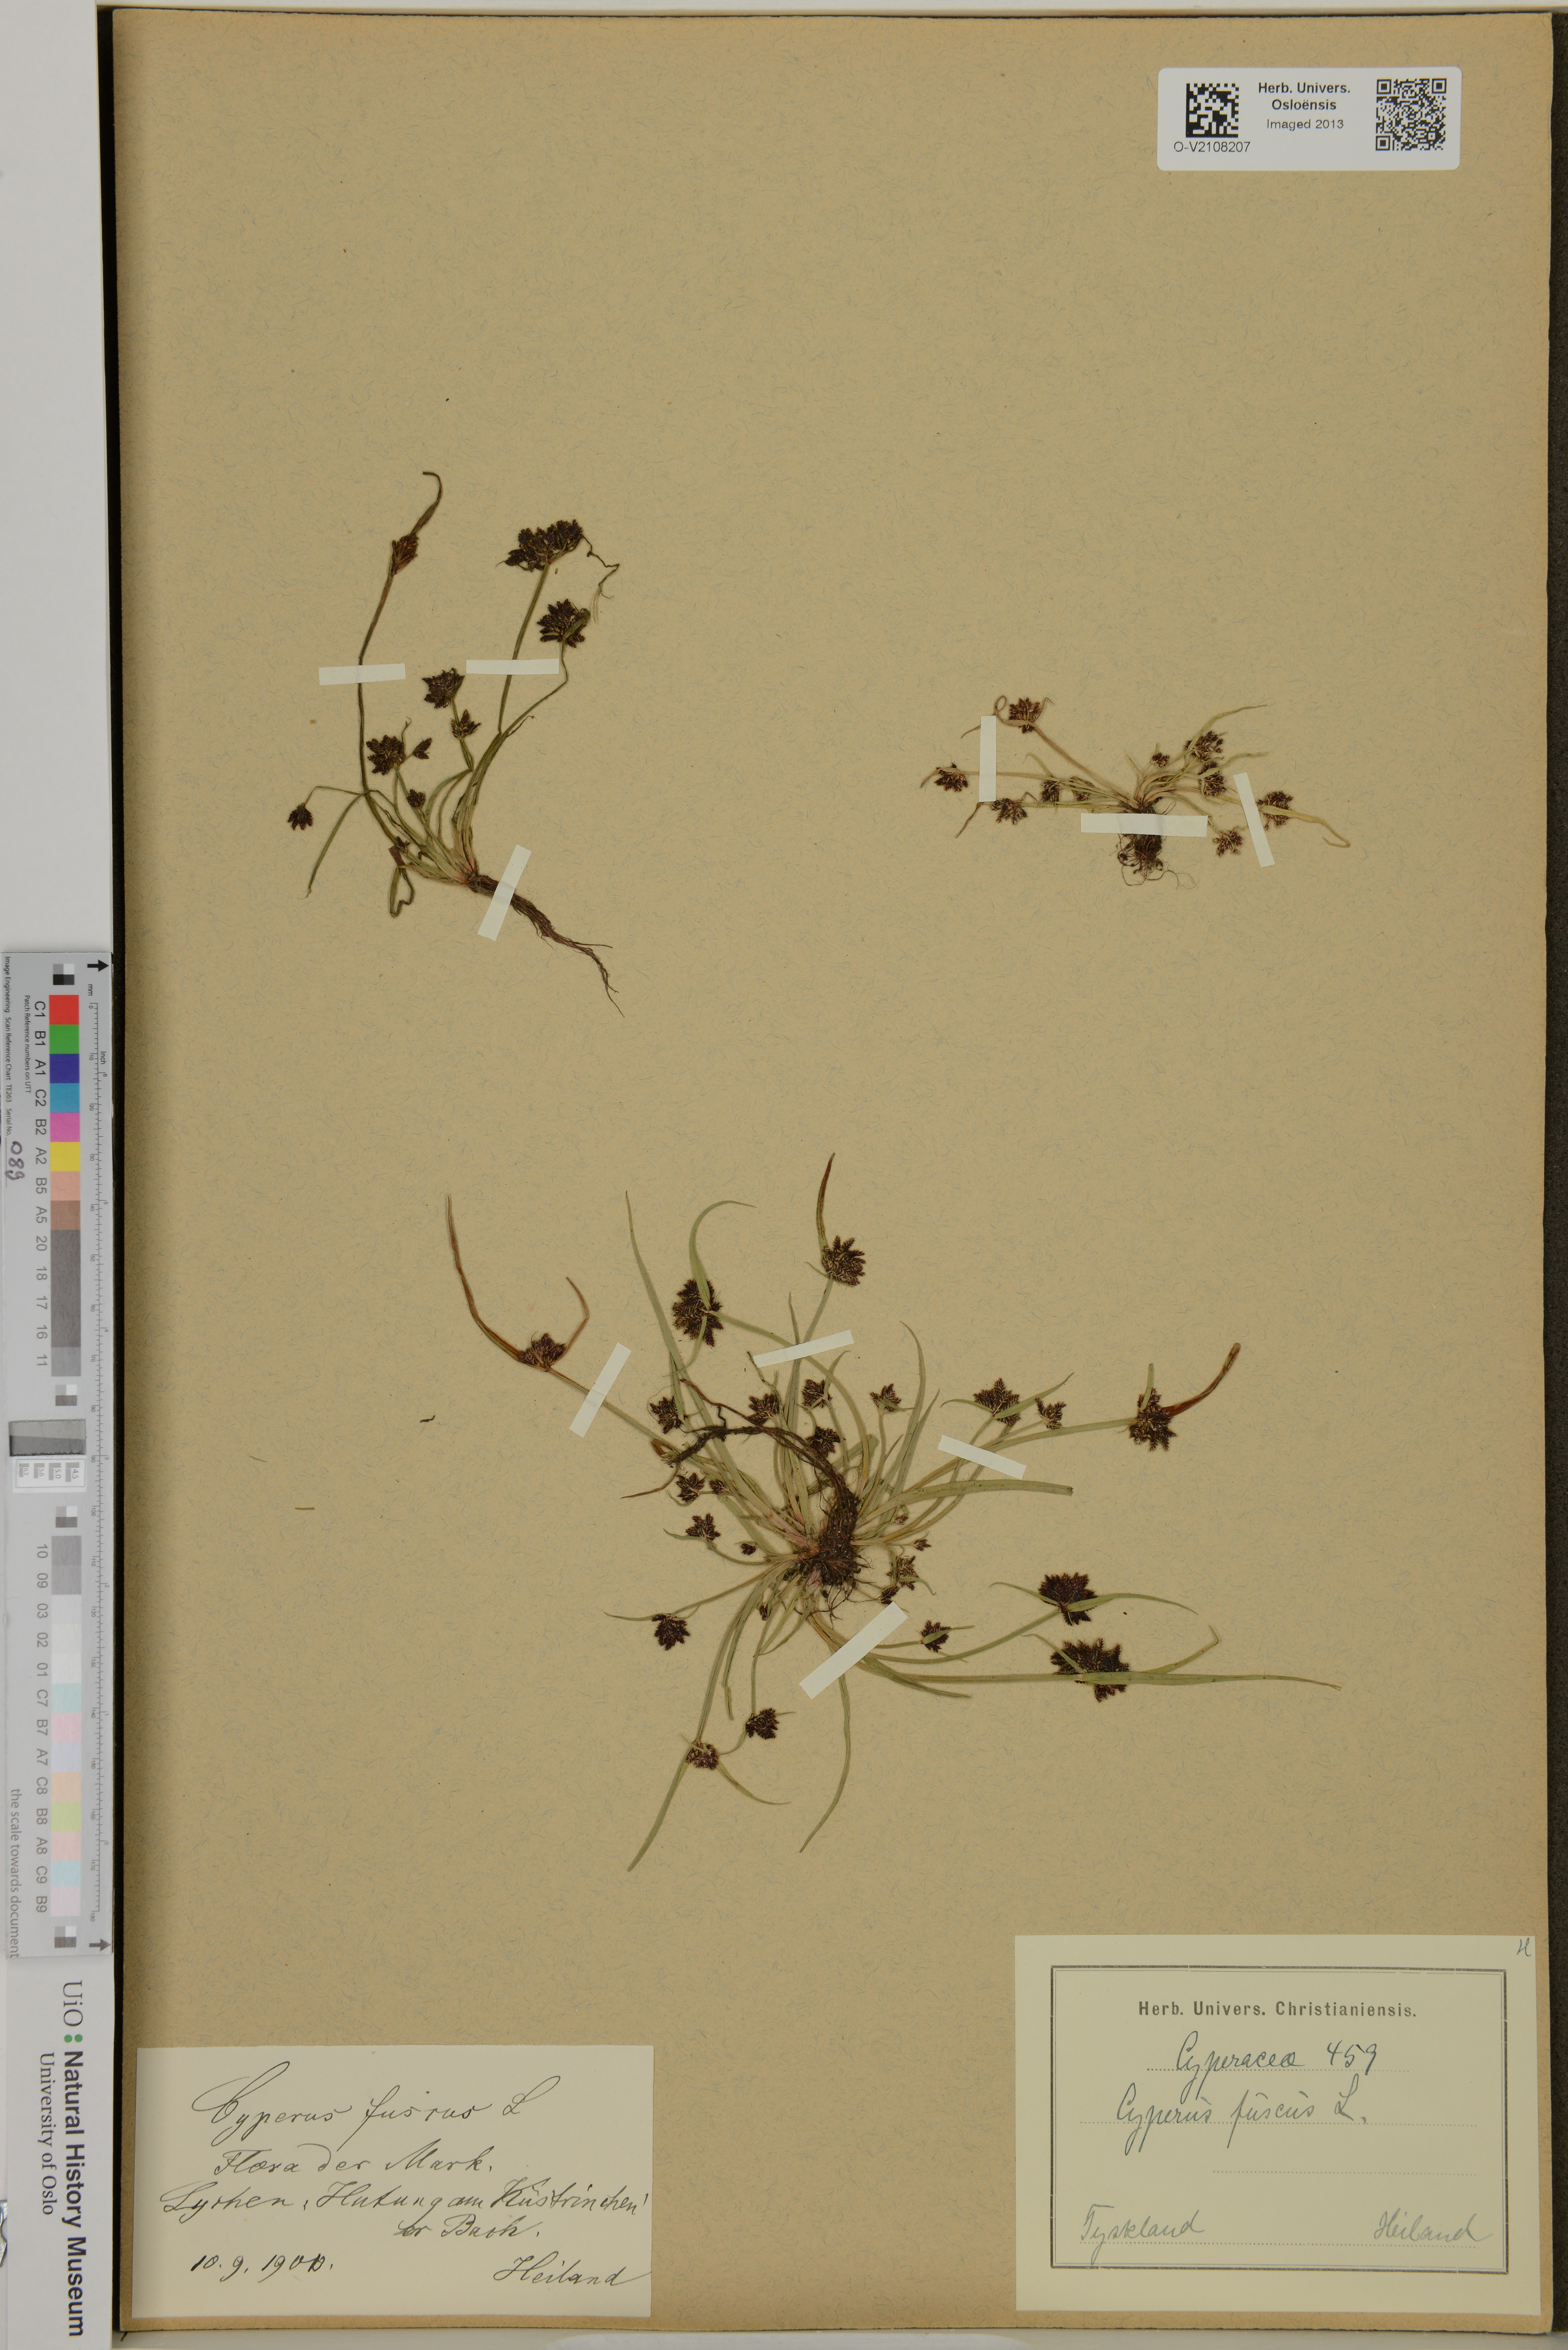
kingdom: Plantae
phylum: Tracheophyta
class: Liliopsida
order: Poales
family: Cyperaceae
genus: Cyperus
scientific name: Cyperus fuscus
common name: Brown galingale
